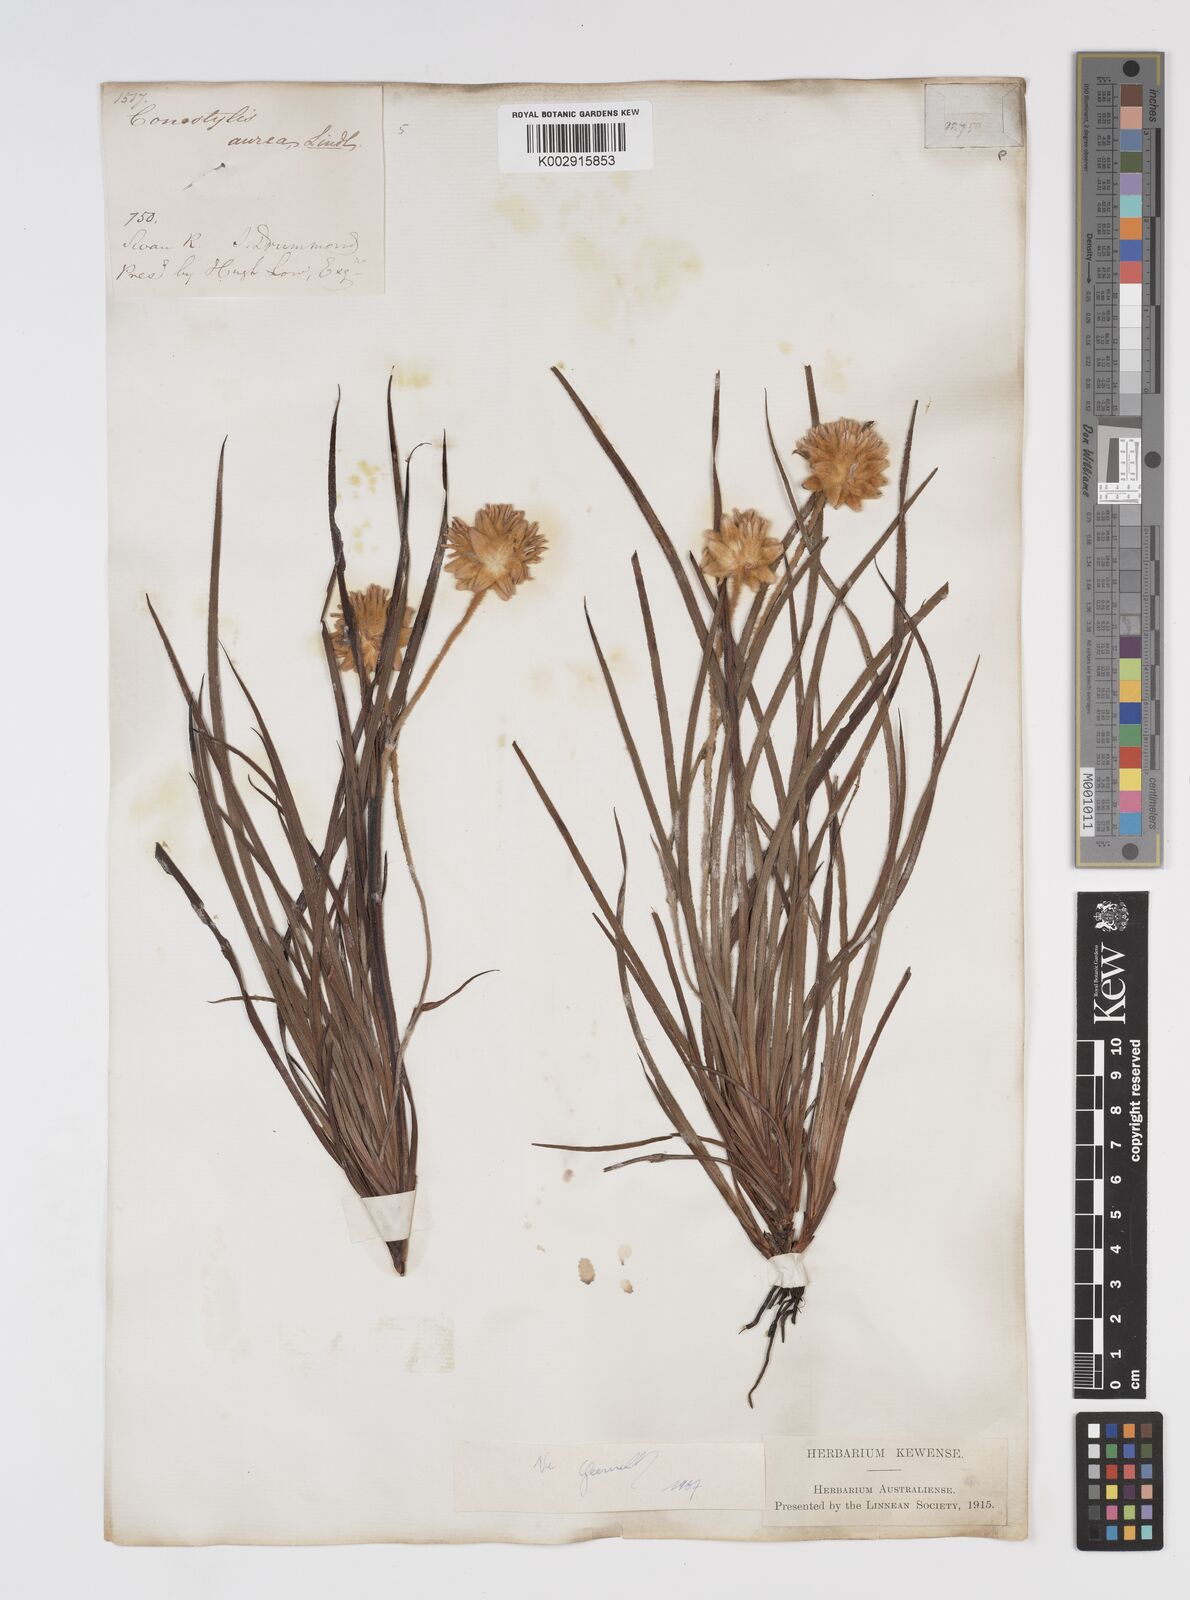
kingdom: Plantae
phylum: Tracheophyta
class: Liliopsida
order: Commelinales
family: Haemodoraceae
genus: Conostylis
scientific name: Conostylis aurea
